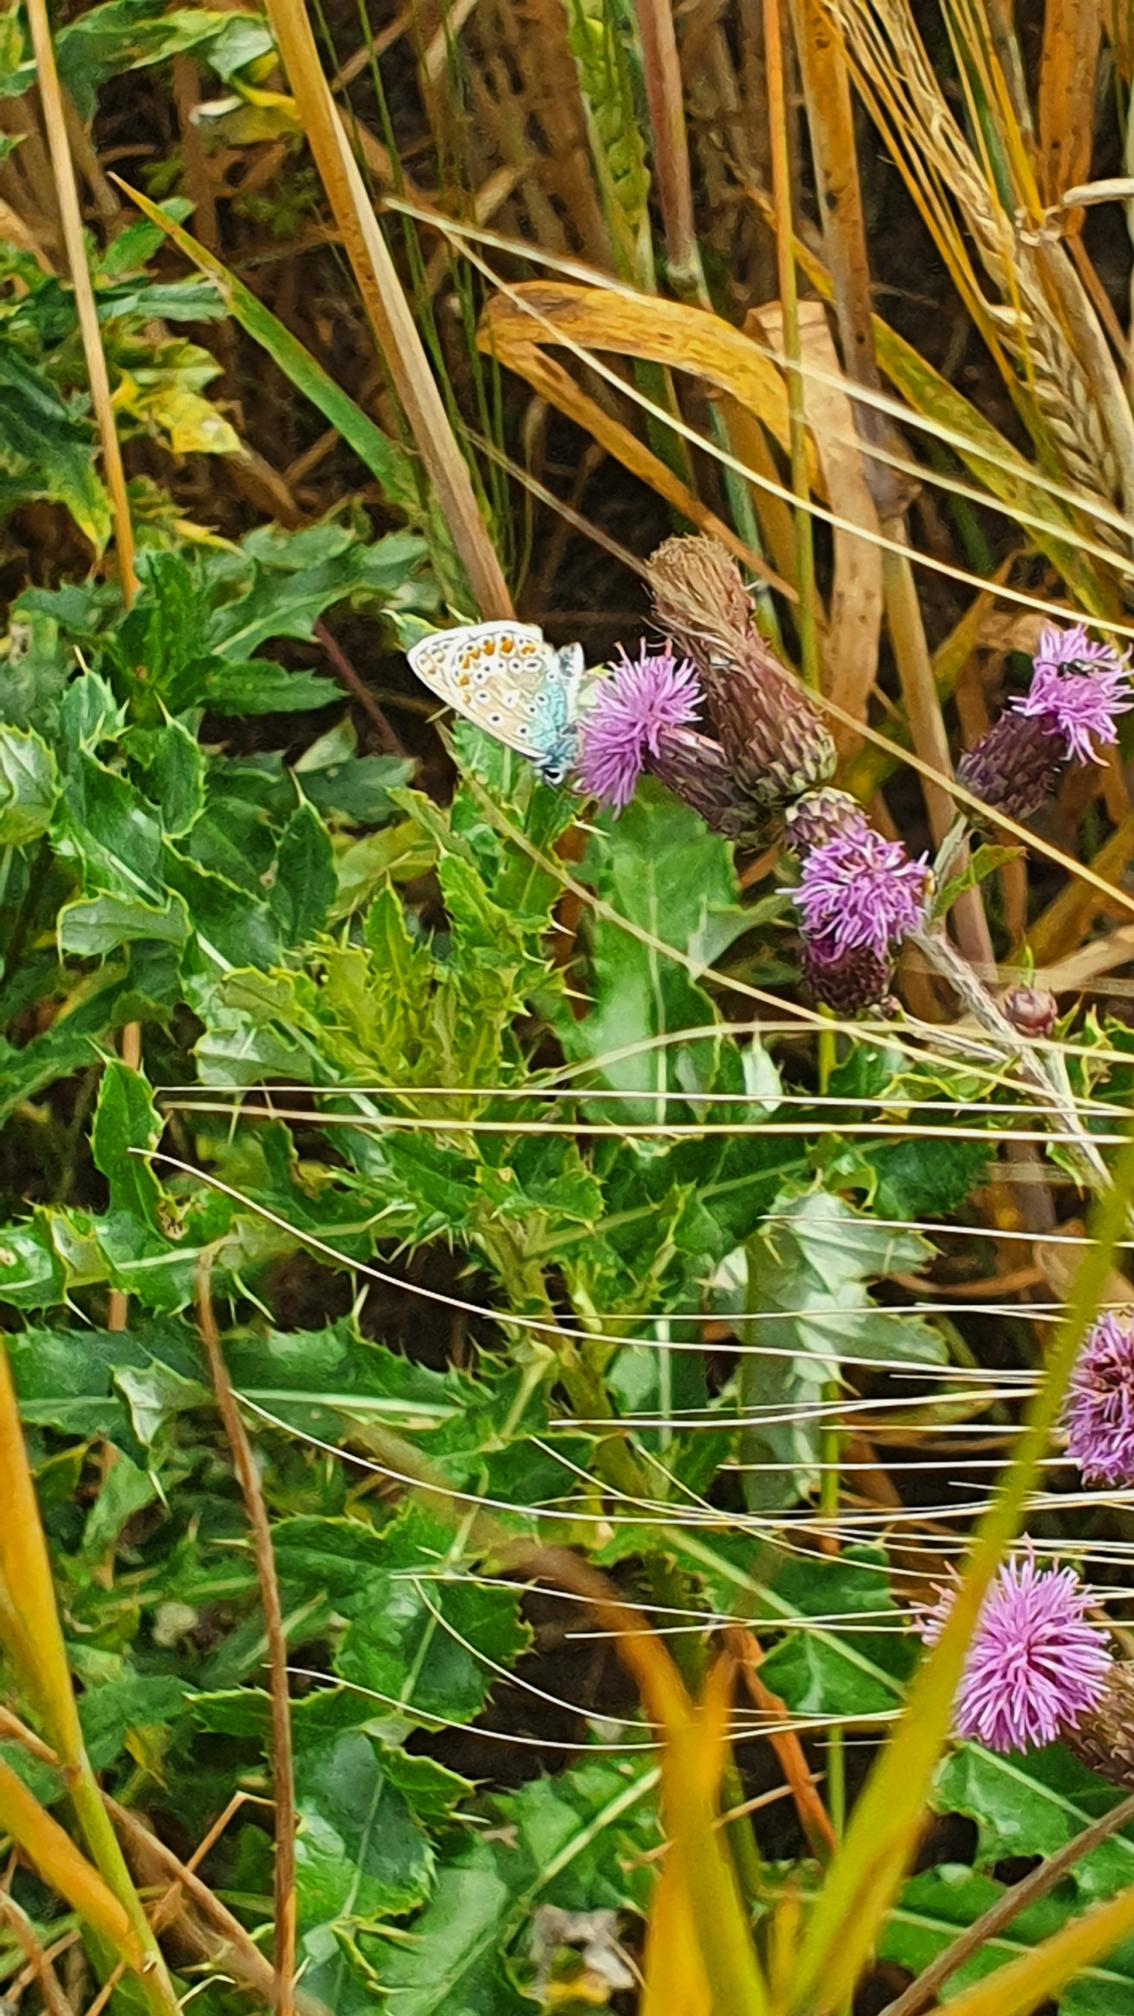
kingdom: Animalia
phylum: Arthropoda
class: Insecta
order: Lepidoptera
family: Lycaenidae
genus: Polyommatus
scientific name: Polyommatus icarus
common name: Almindelig blåfugl
